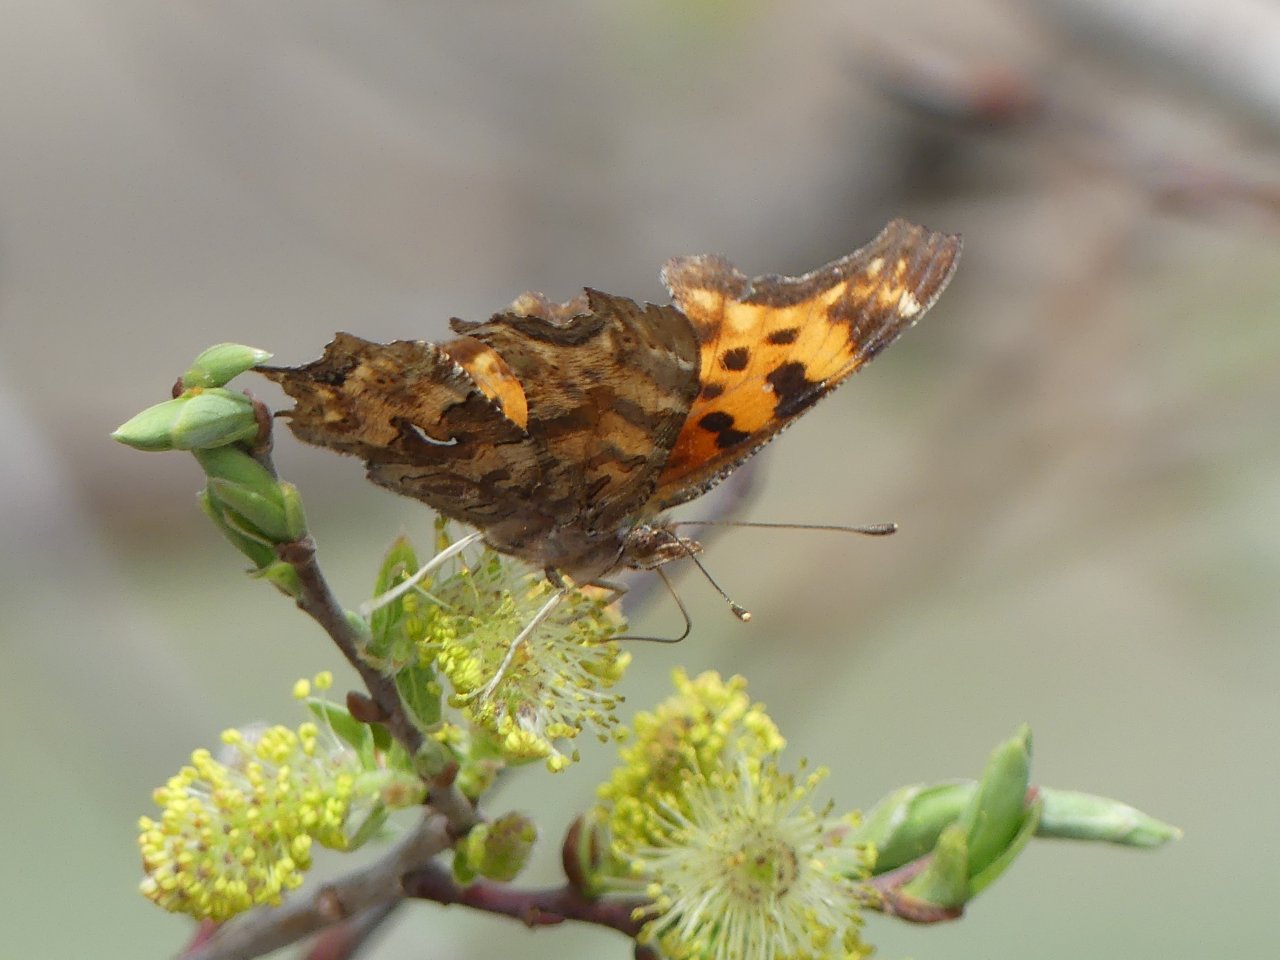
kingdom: Animalia
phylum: Arthropoda
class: Insecta
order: Lepidoptera
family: Nymphalidae
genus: Polygonia
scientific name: Polygonia satyrus
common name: Satyr Comma
